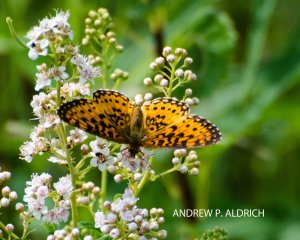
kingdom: Animalia
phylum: Arthropoda
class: Insecta
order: Lepidoptera
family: Nymphalidae
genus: Boloria
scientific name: Boloria selene
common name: Silver-bordered Fritillary
